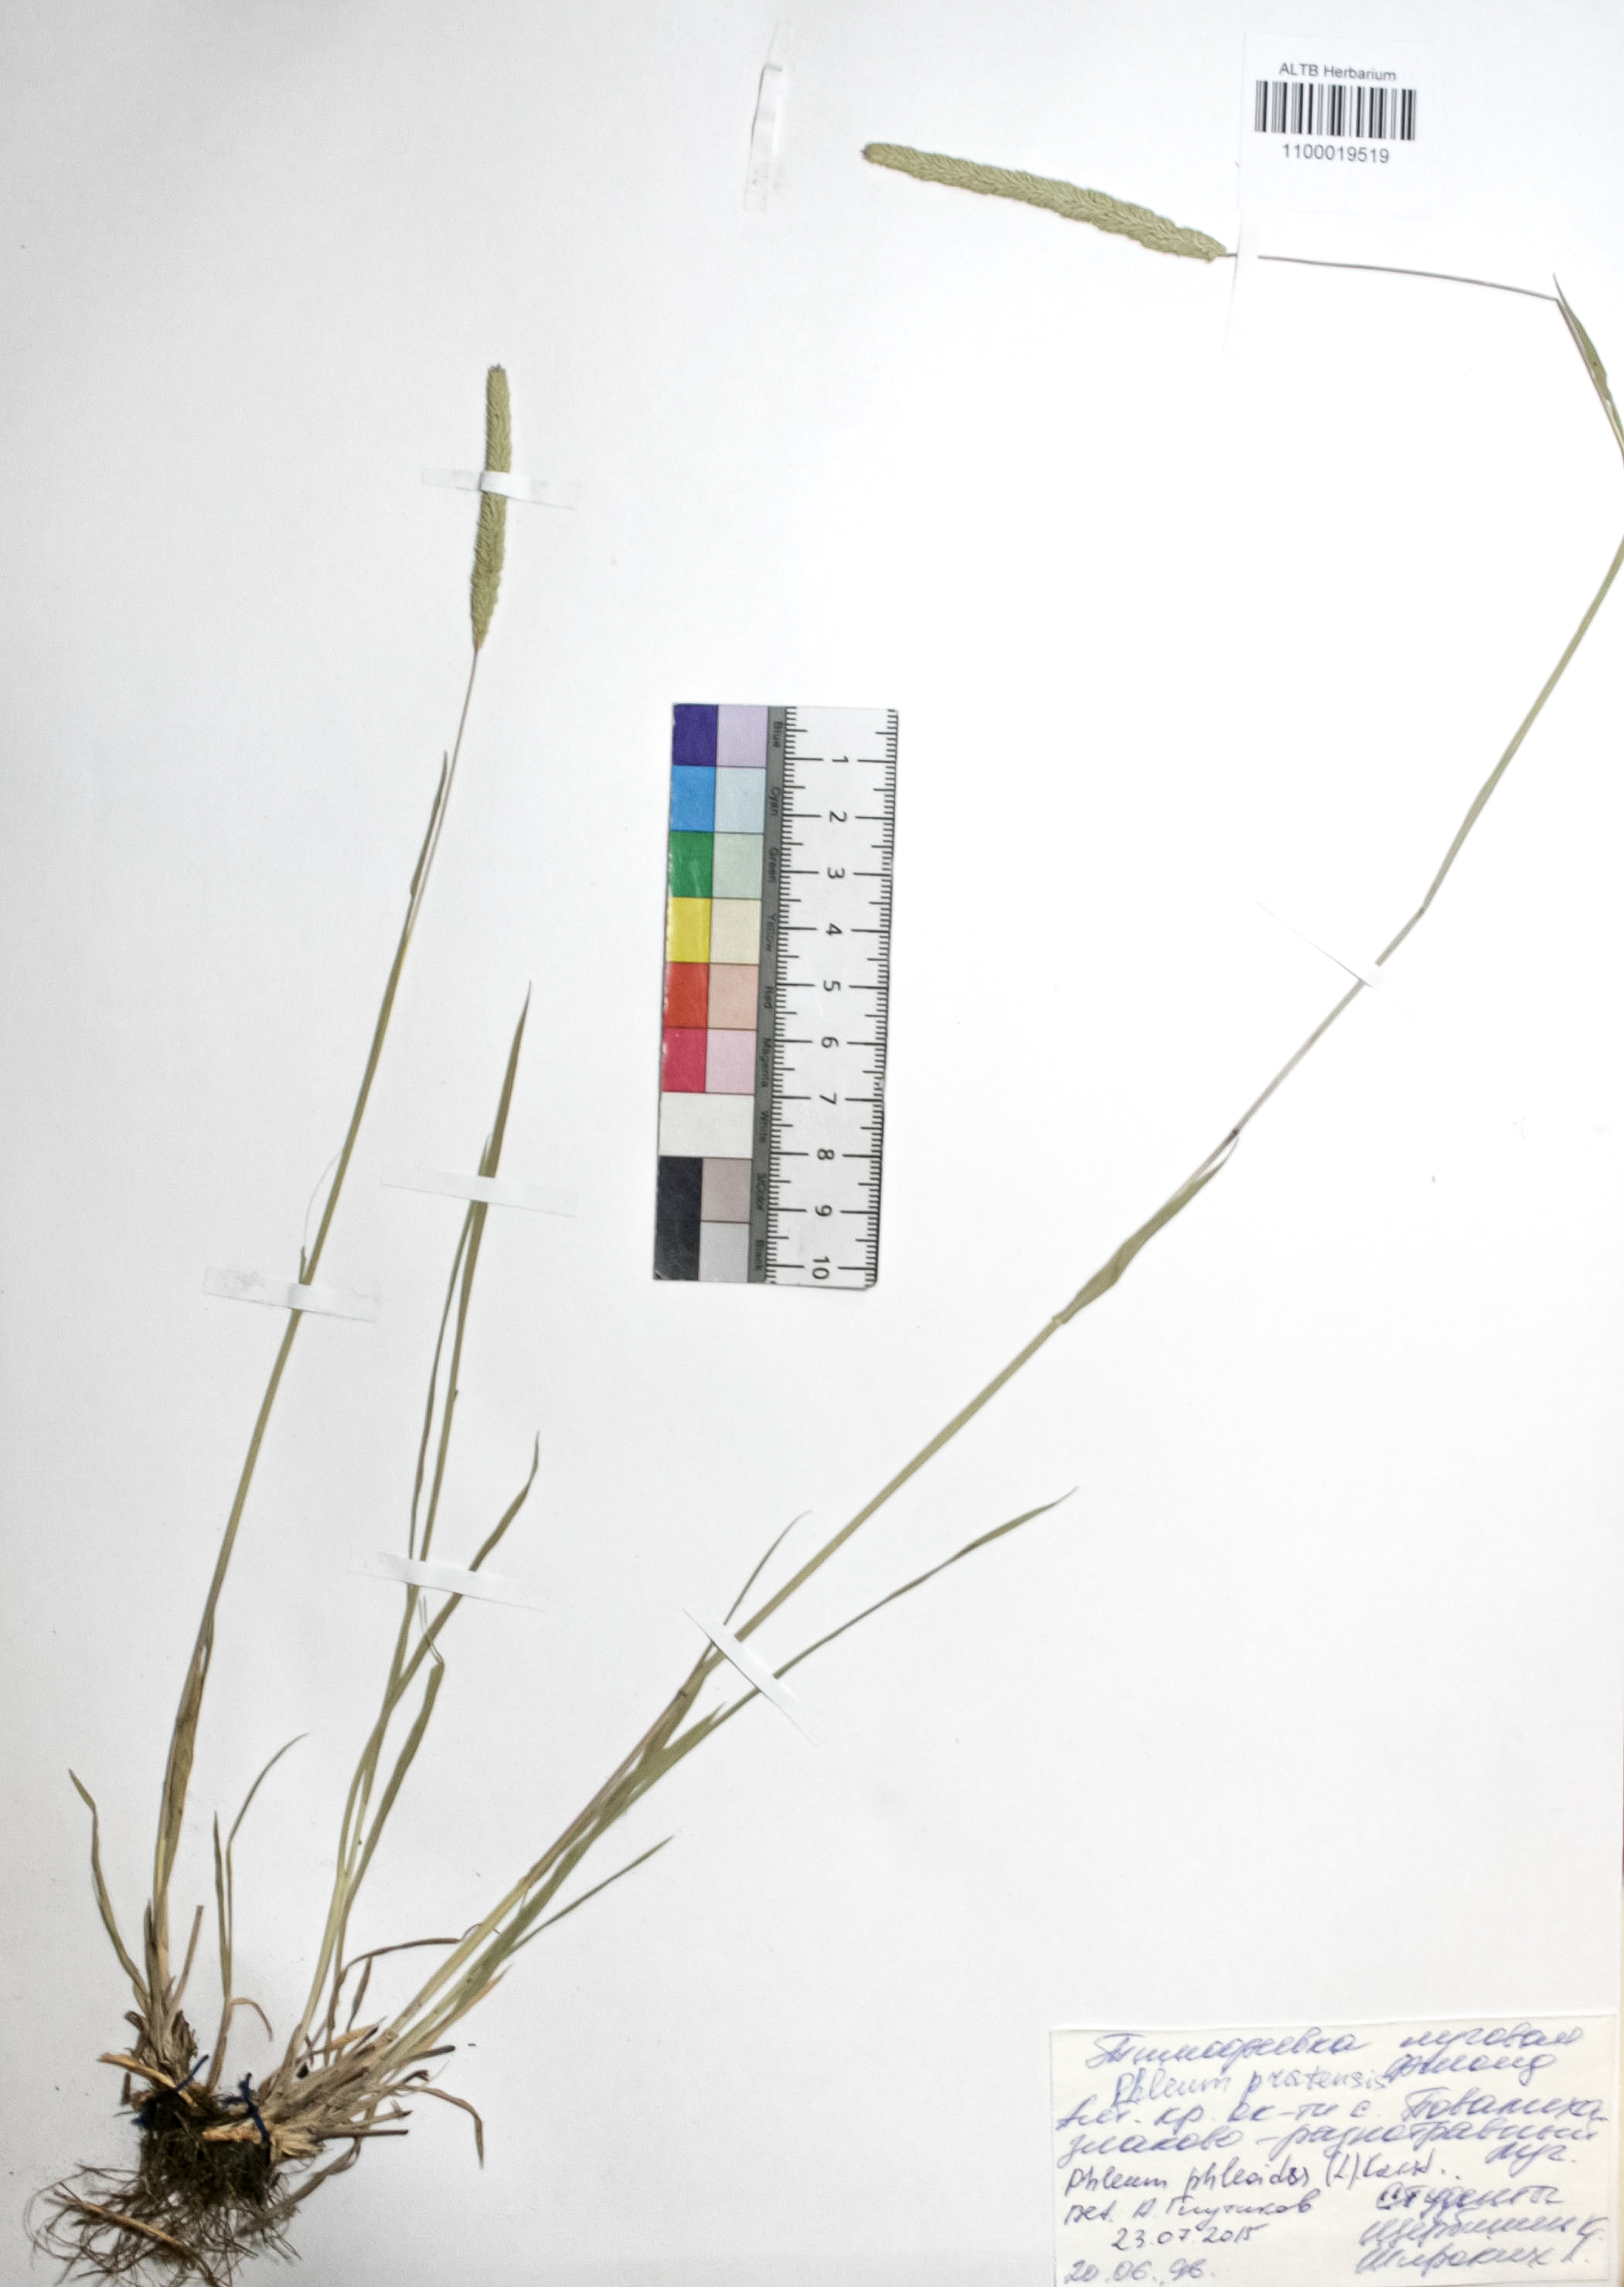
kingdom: Plantae
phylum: Tracheophyta
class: Liliopsida
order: Poales
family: Poaceae
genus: Phleum
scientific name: Phleum pratense
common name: Timothy grass
